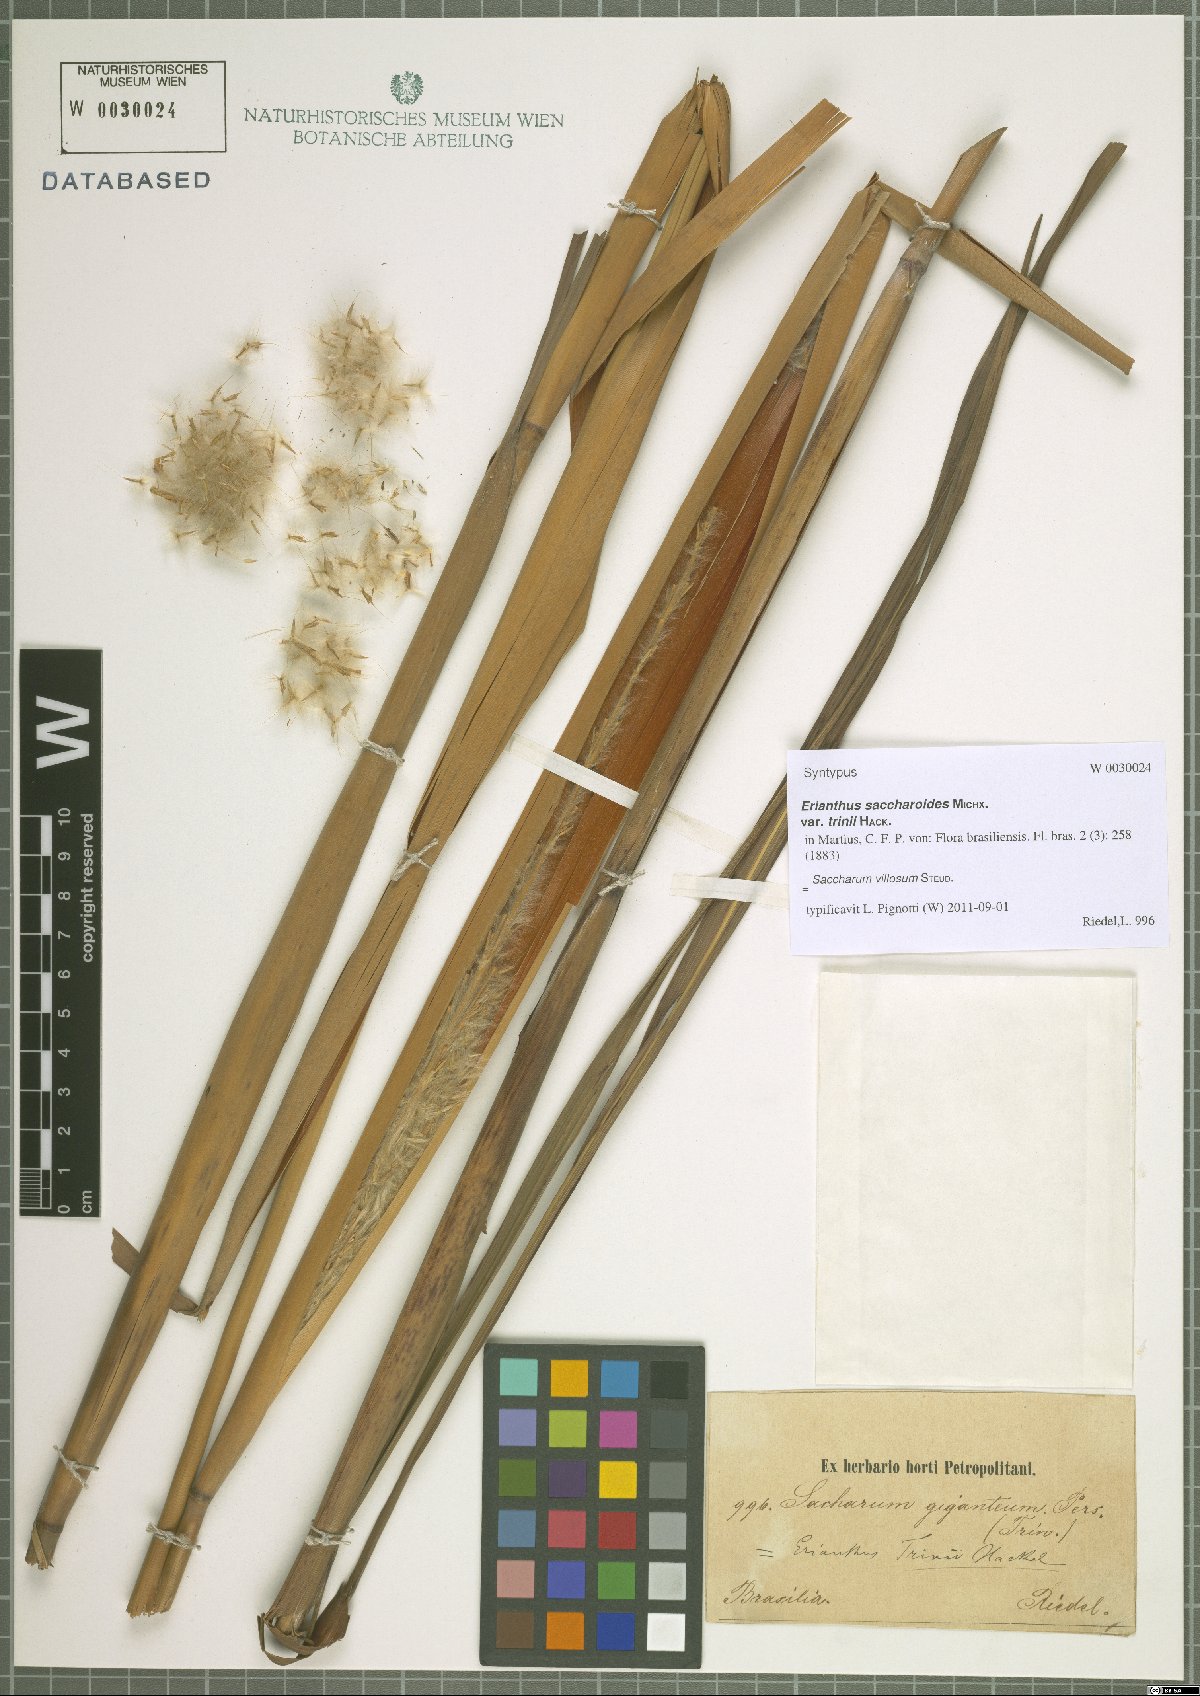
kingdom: Plantae
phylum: Tracheophyta
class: Liliopsida
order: Poales
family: Poaceae
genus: Erianthus
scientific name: Erianthus trinii
